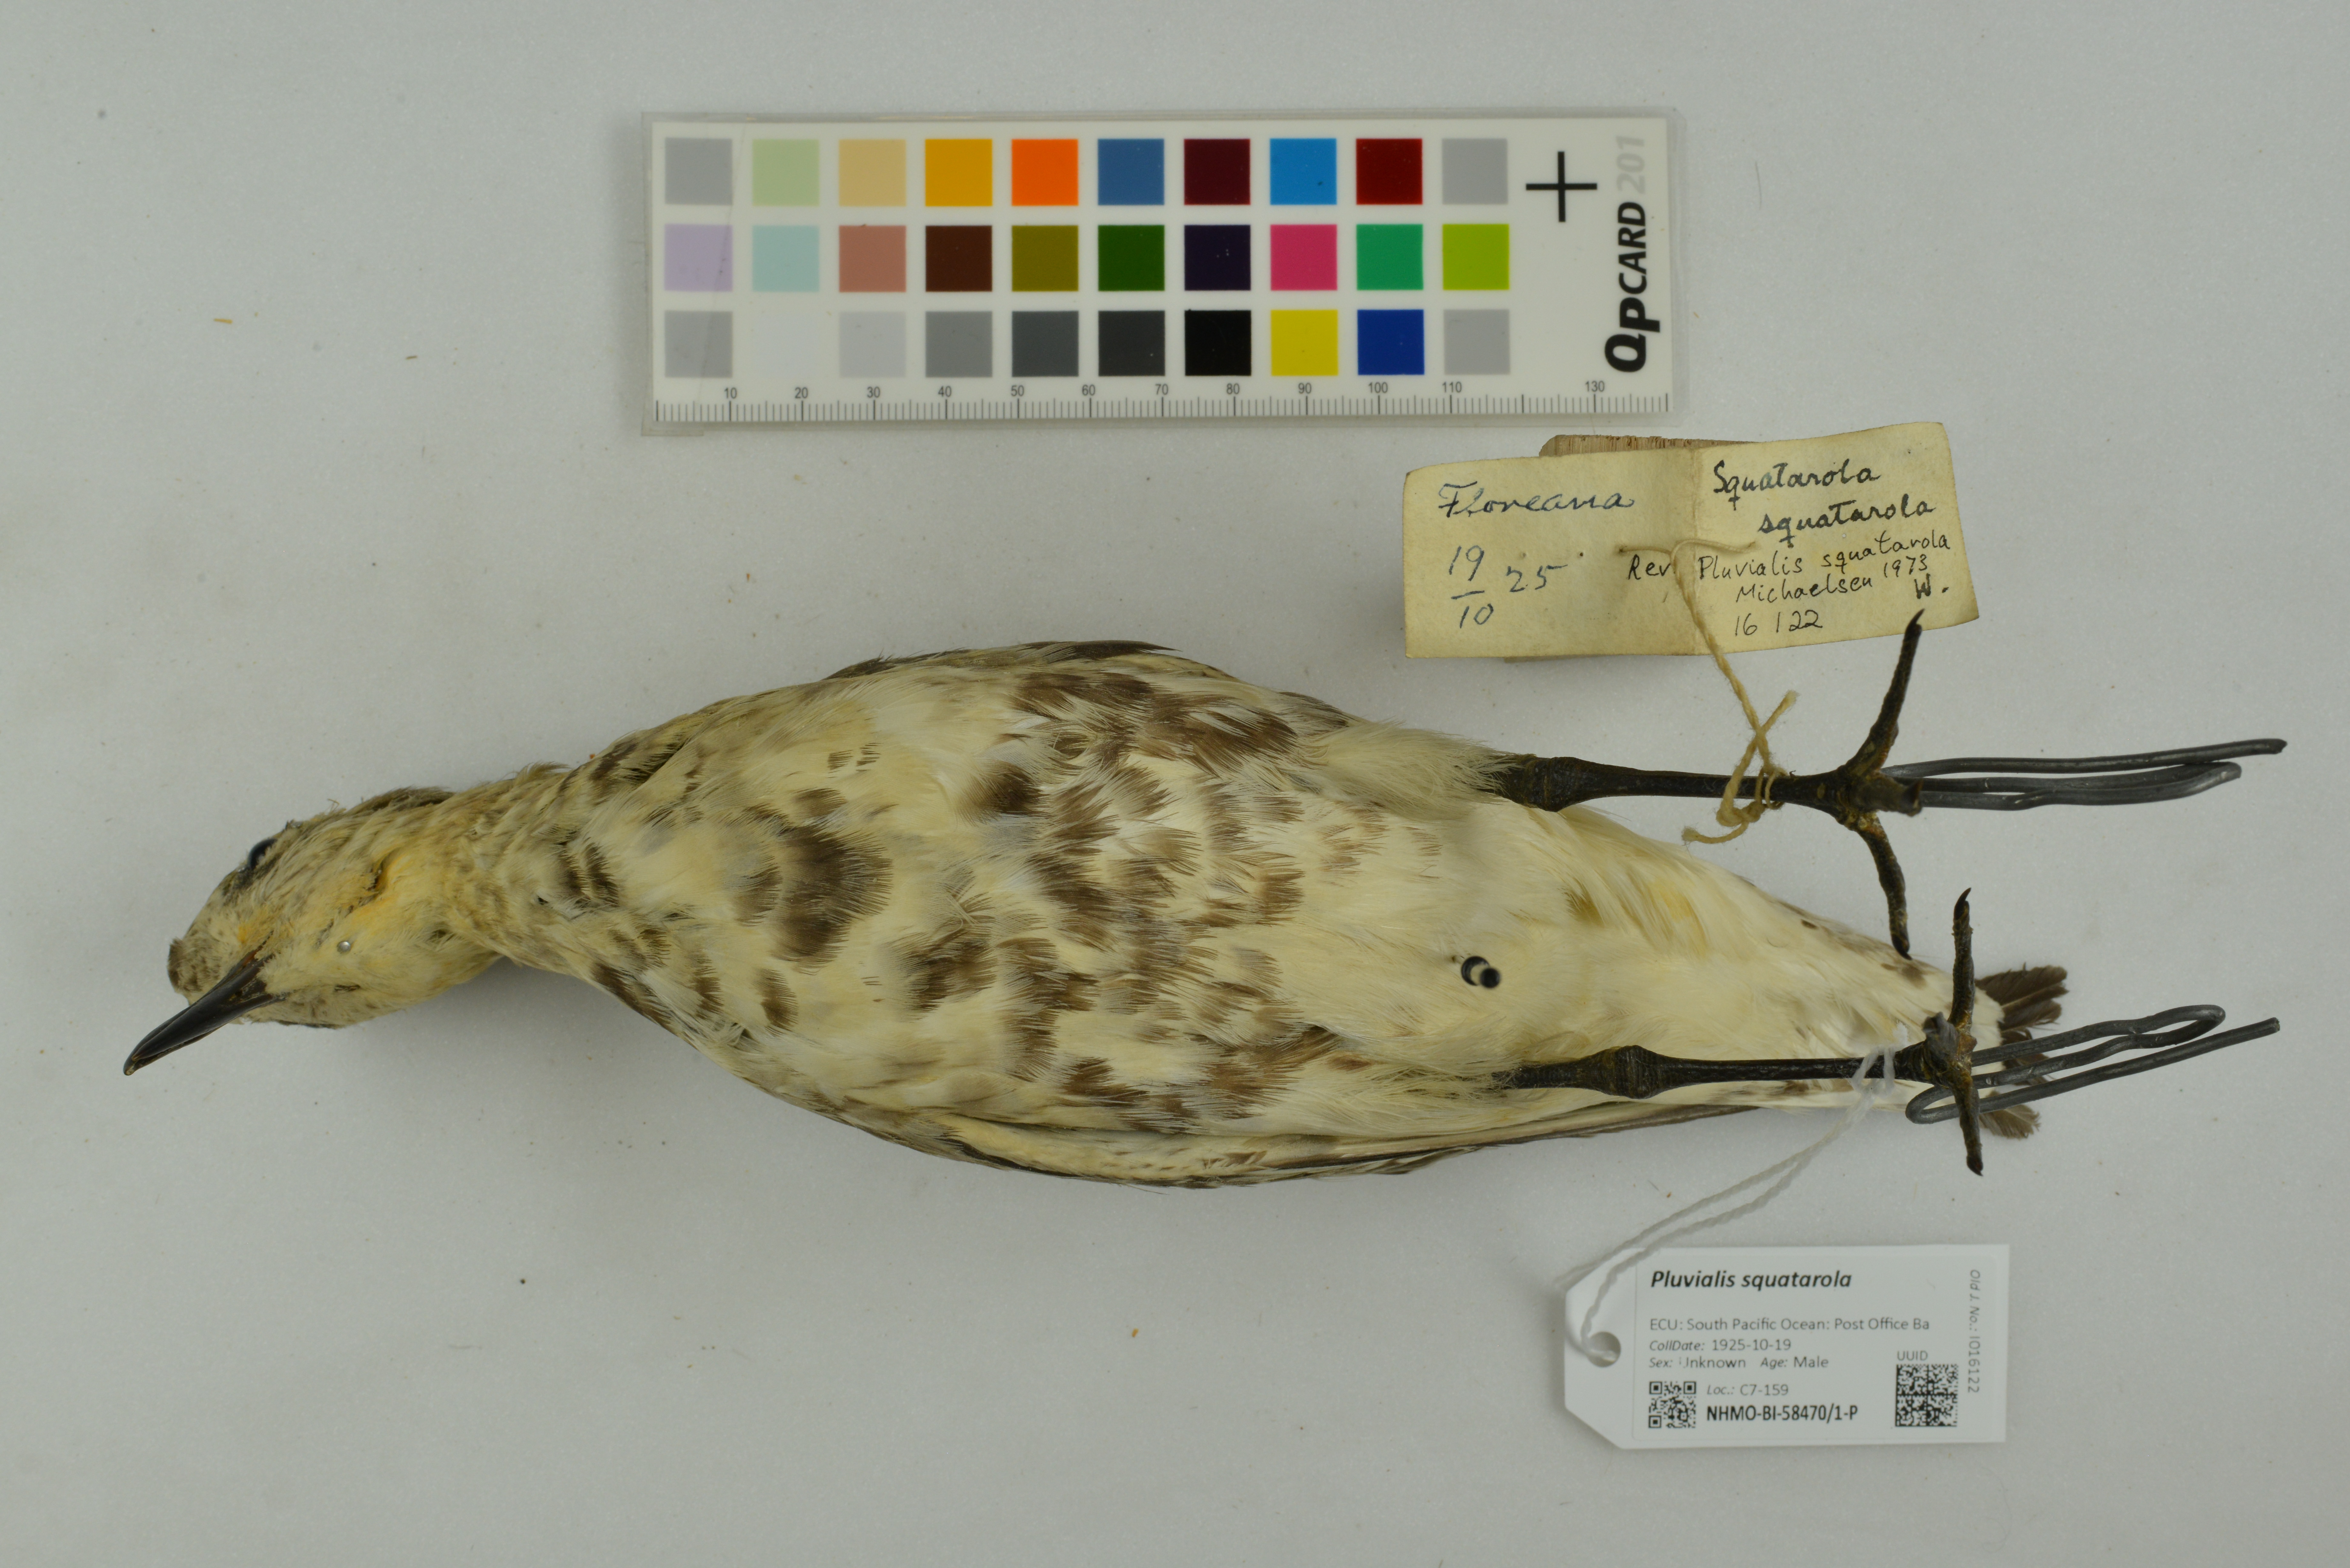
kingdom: Animalia
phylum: Chordata
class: Aves
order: Charadriiformes
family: Charadriidae
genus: Pluvialis
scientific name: Pluvialis squatarola
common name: Grey plover
